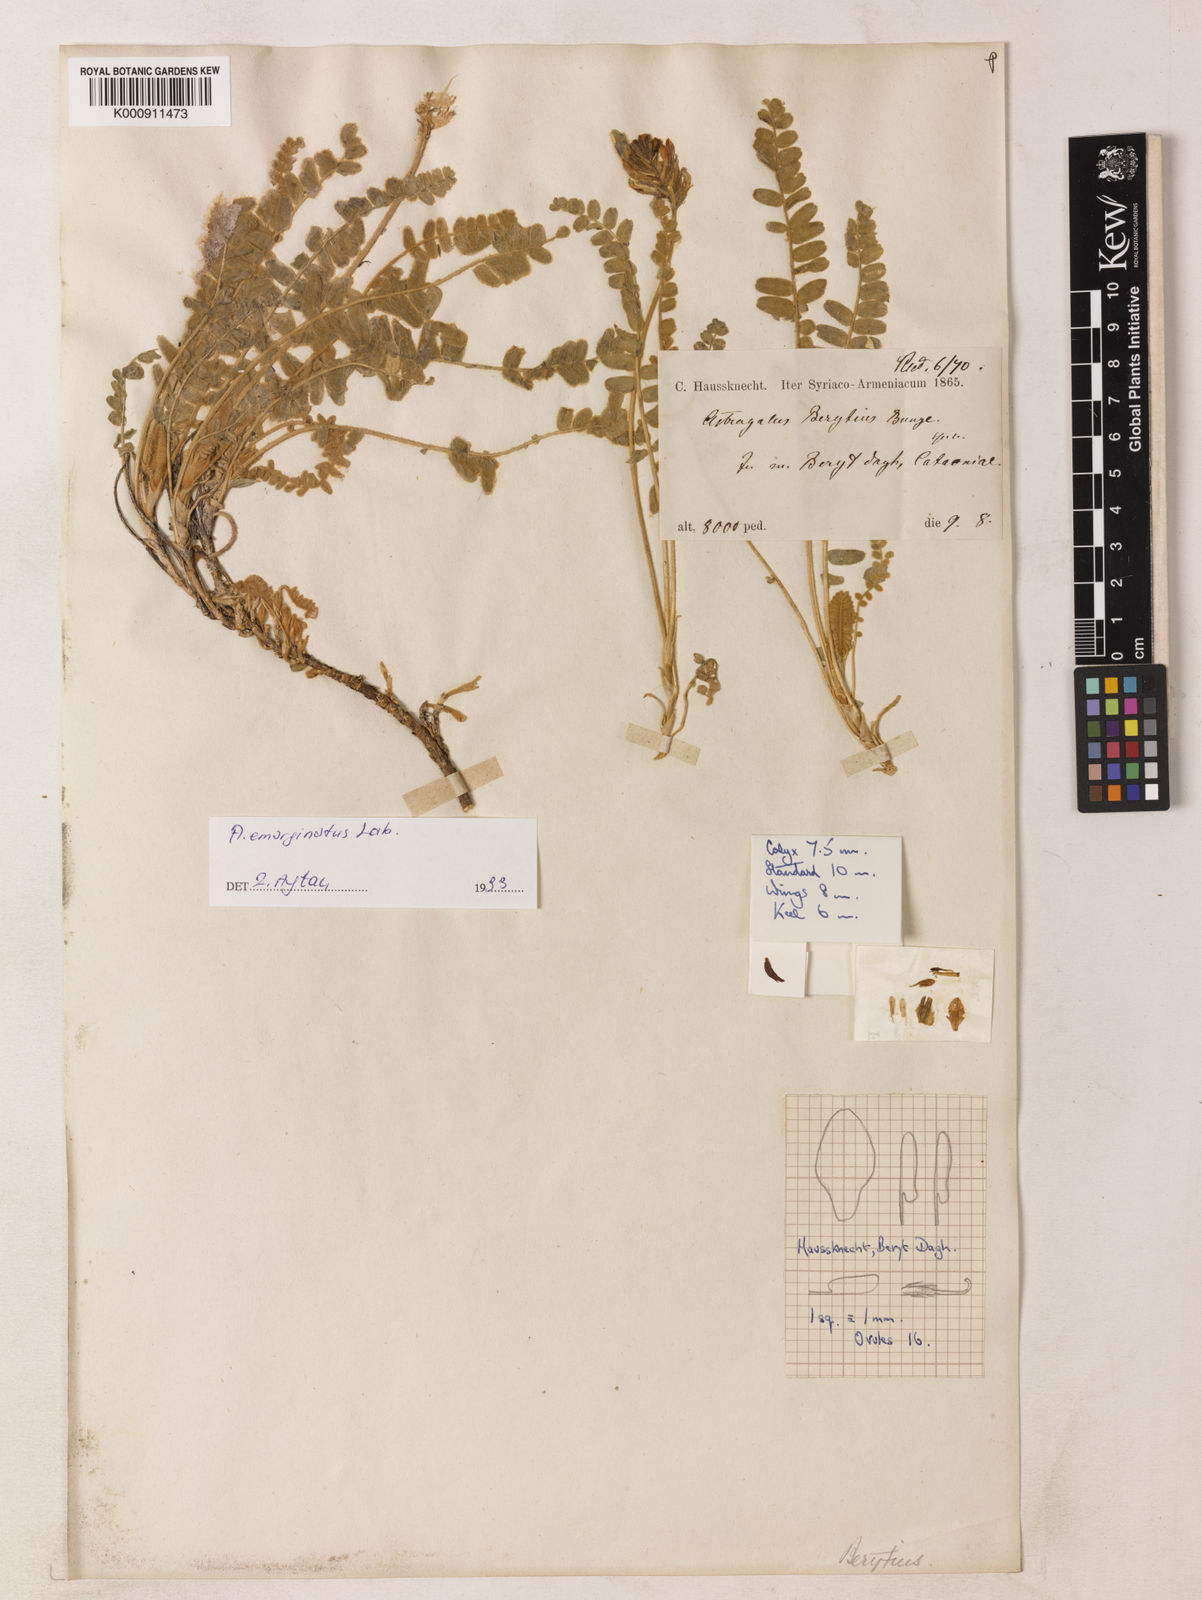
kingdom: Plantae
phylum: Tracheophyta
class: Magnoliopsida
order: Fabales
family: Fabaceae
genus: Astragalus
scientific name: Astragalus berytius
